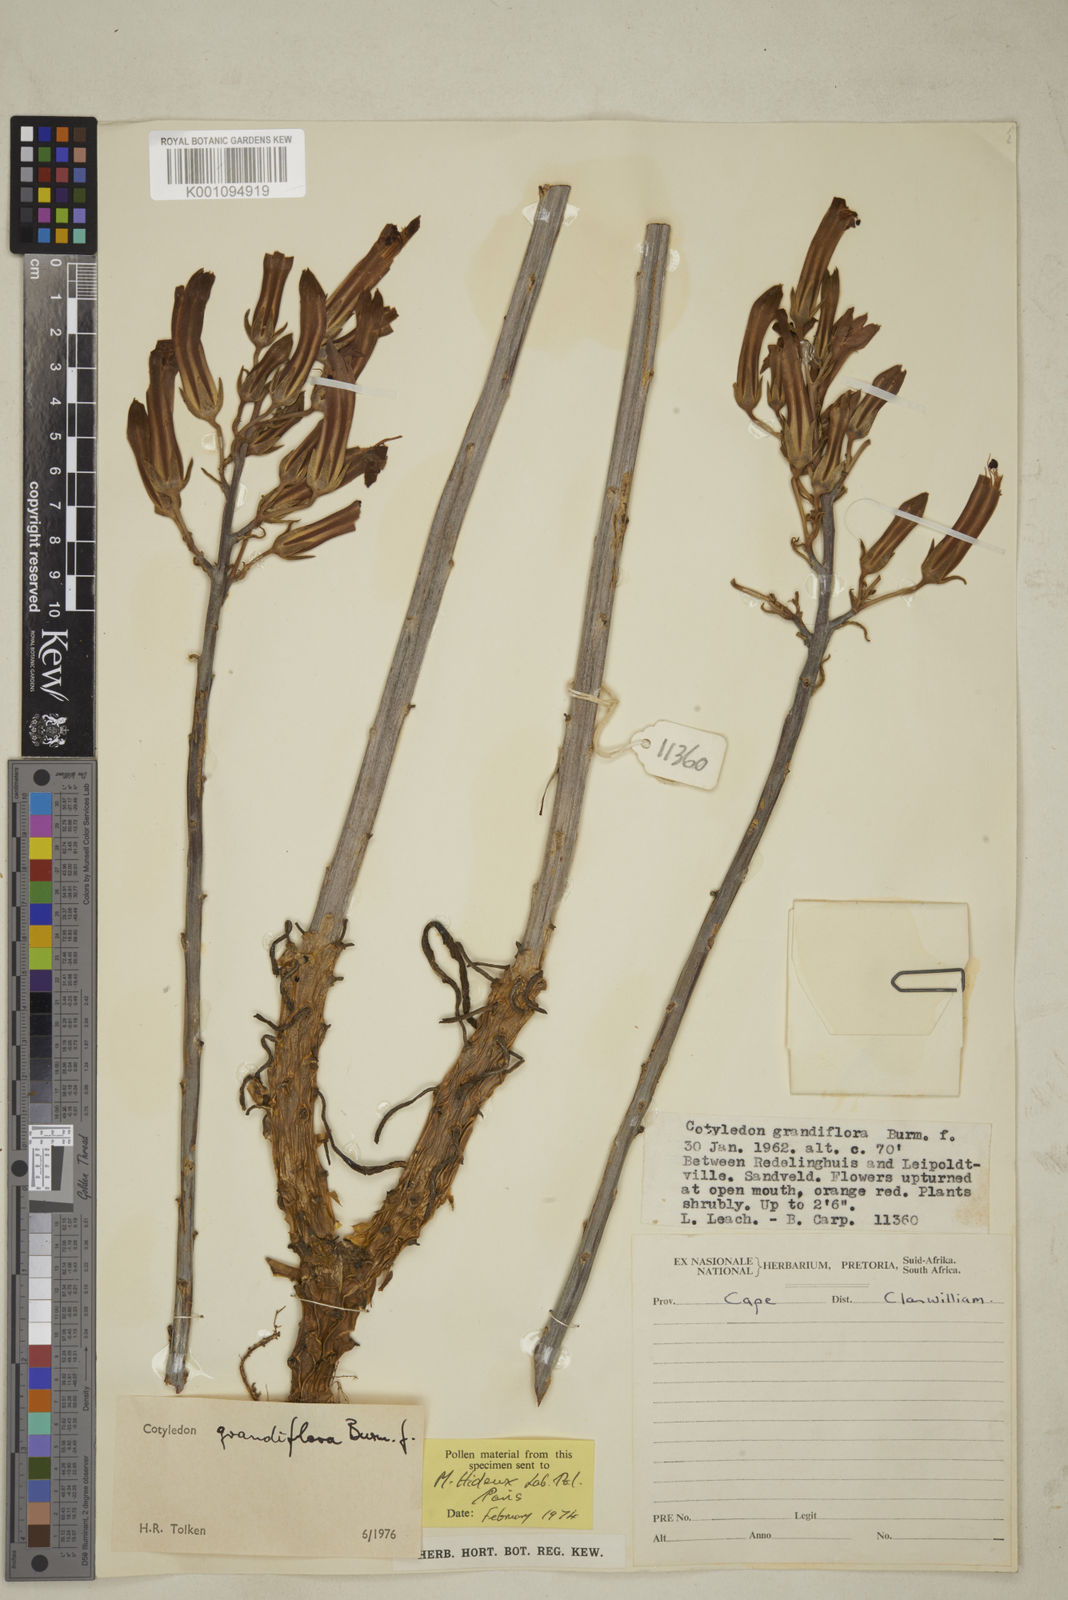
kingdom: Plantae
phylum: Tracheophyta
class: Magnoliopsida
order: Saxifragales
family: Crassulaceae
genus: Tylecodon
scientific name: Tylecodon grandiflorus
